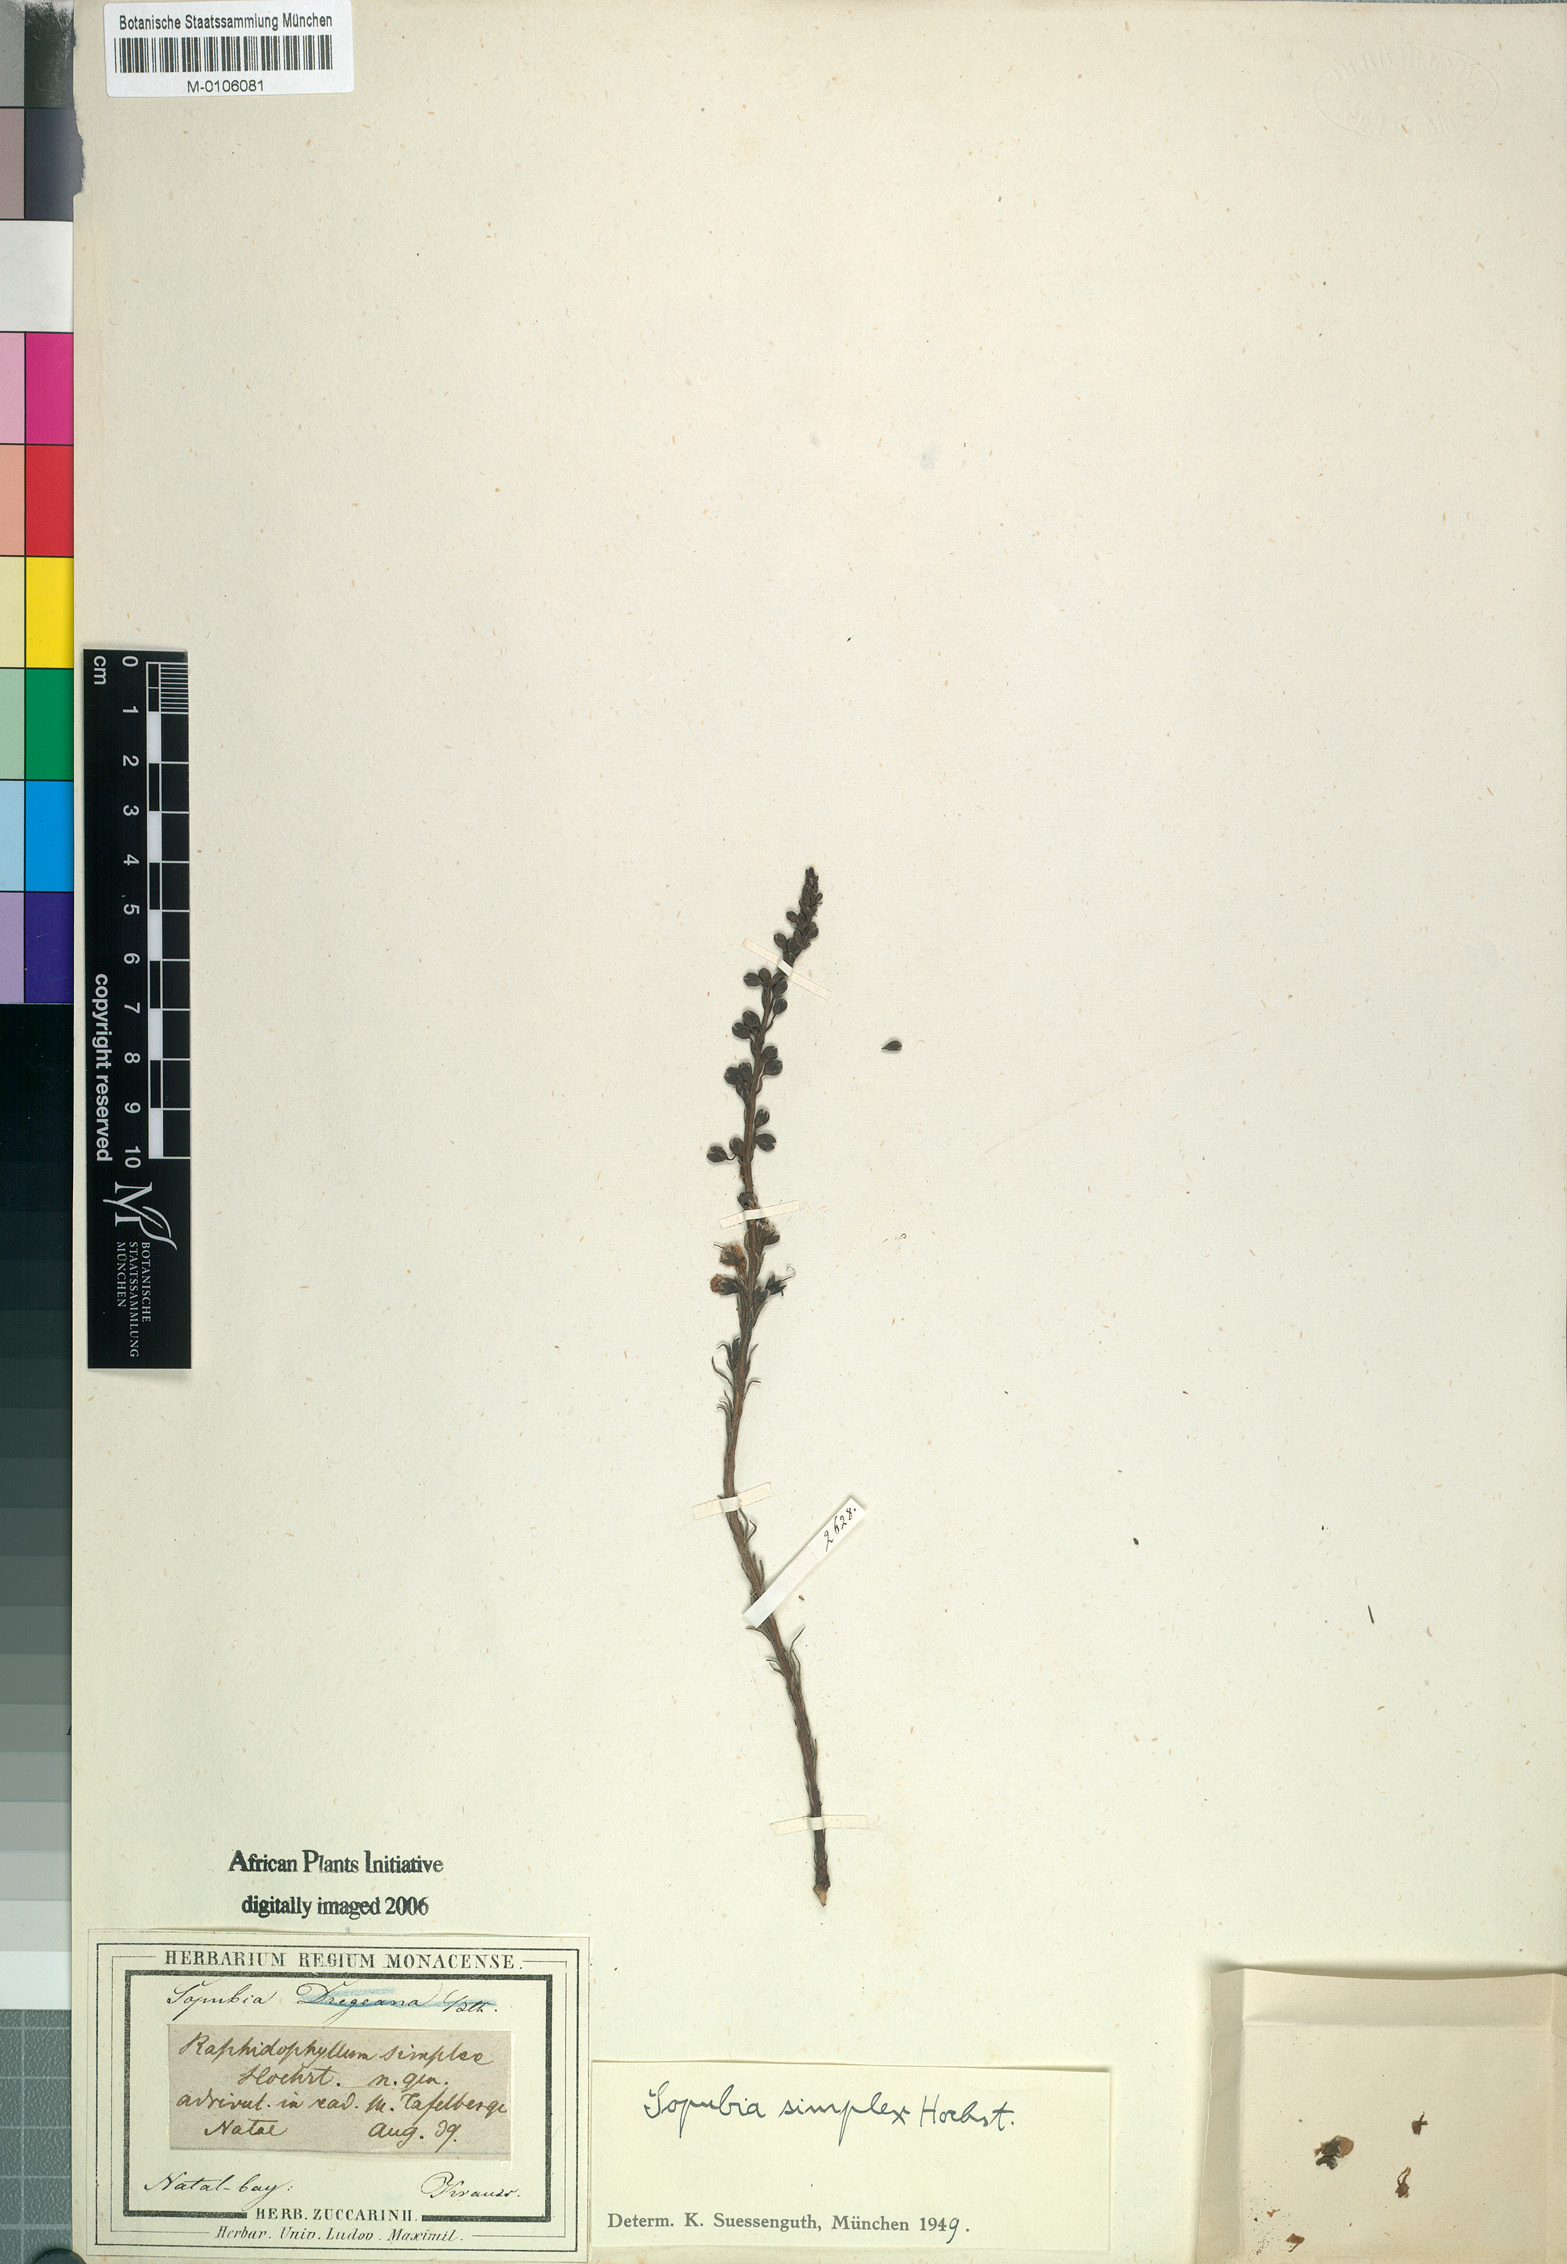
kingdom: Plantae
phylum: Tracheophyta
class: Magnoliopsida
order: Lamiales
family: Orobanchaceae
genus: Sopubia
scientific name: Sopubia simplex
